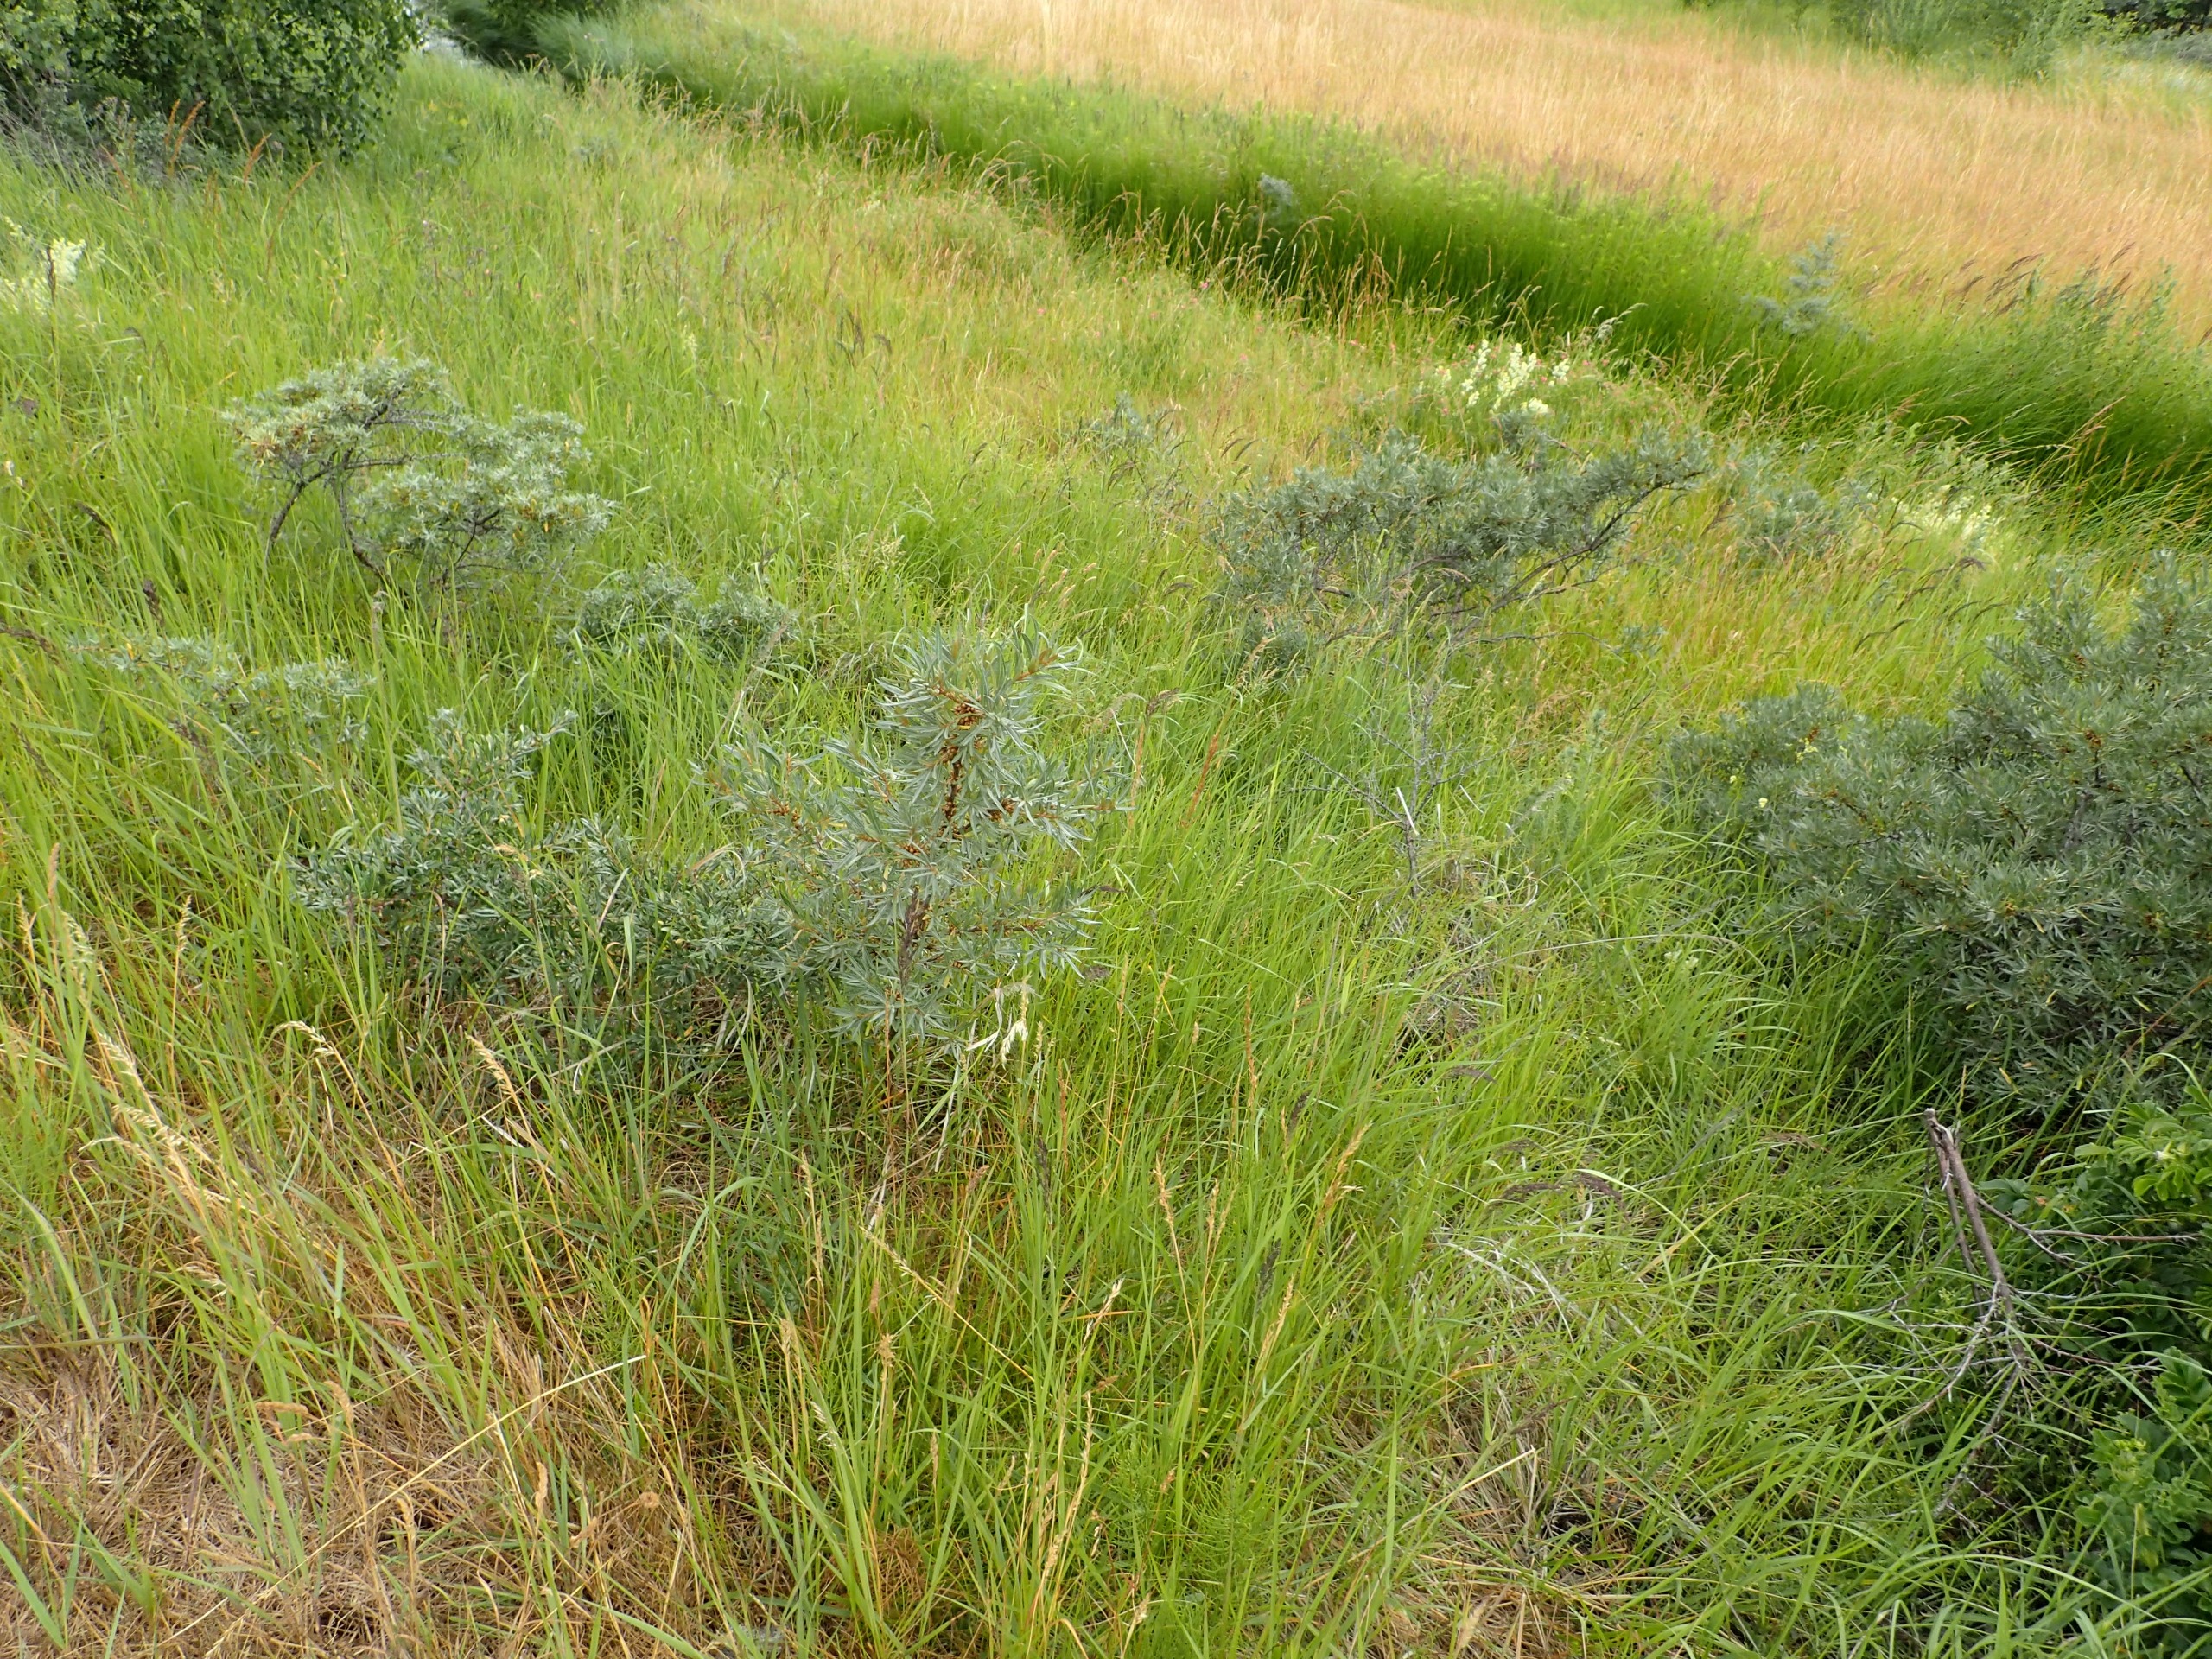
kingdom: Plantae
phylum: Tracheophyta
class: Magnoliopsida
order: Rosales
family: Elaeagnaceae
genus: Hippophae
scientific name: Hippophae rhamnoides
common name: Havtorn
